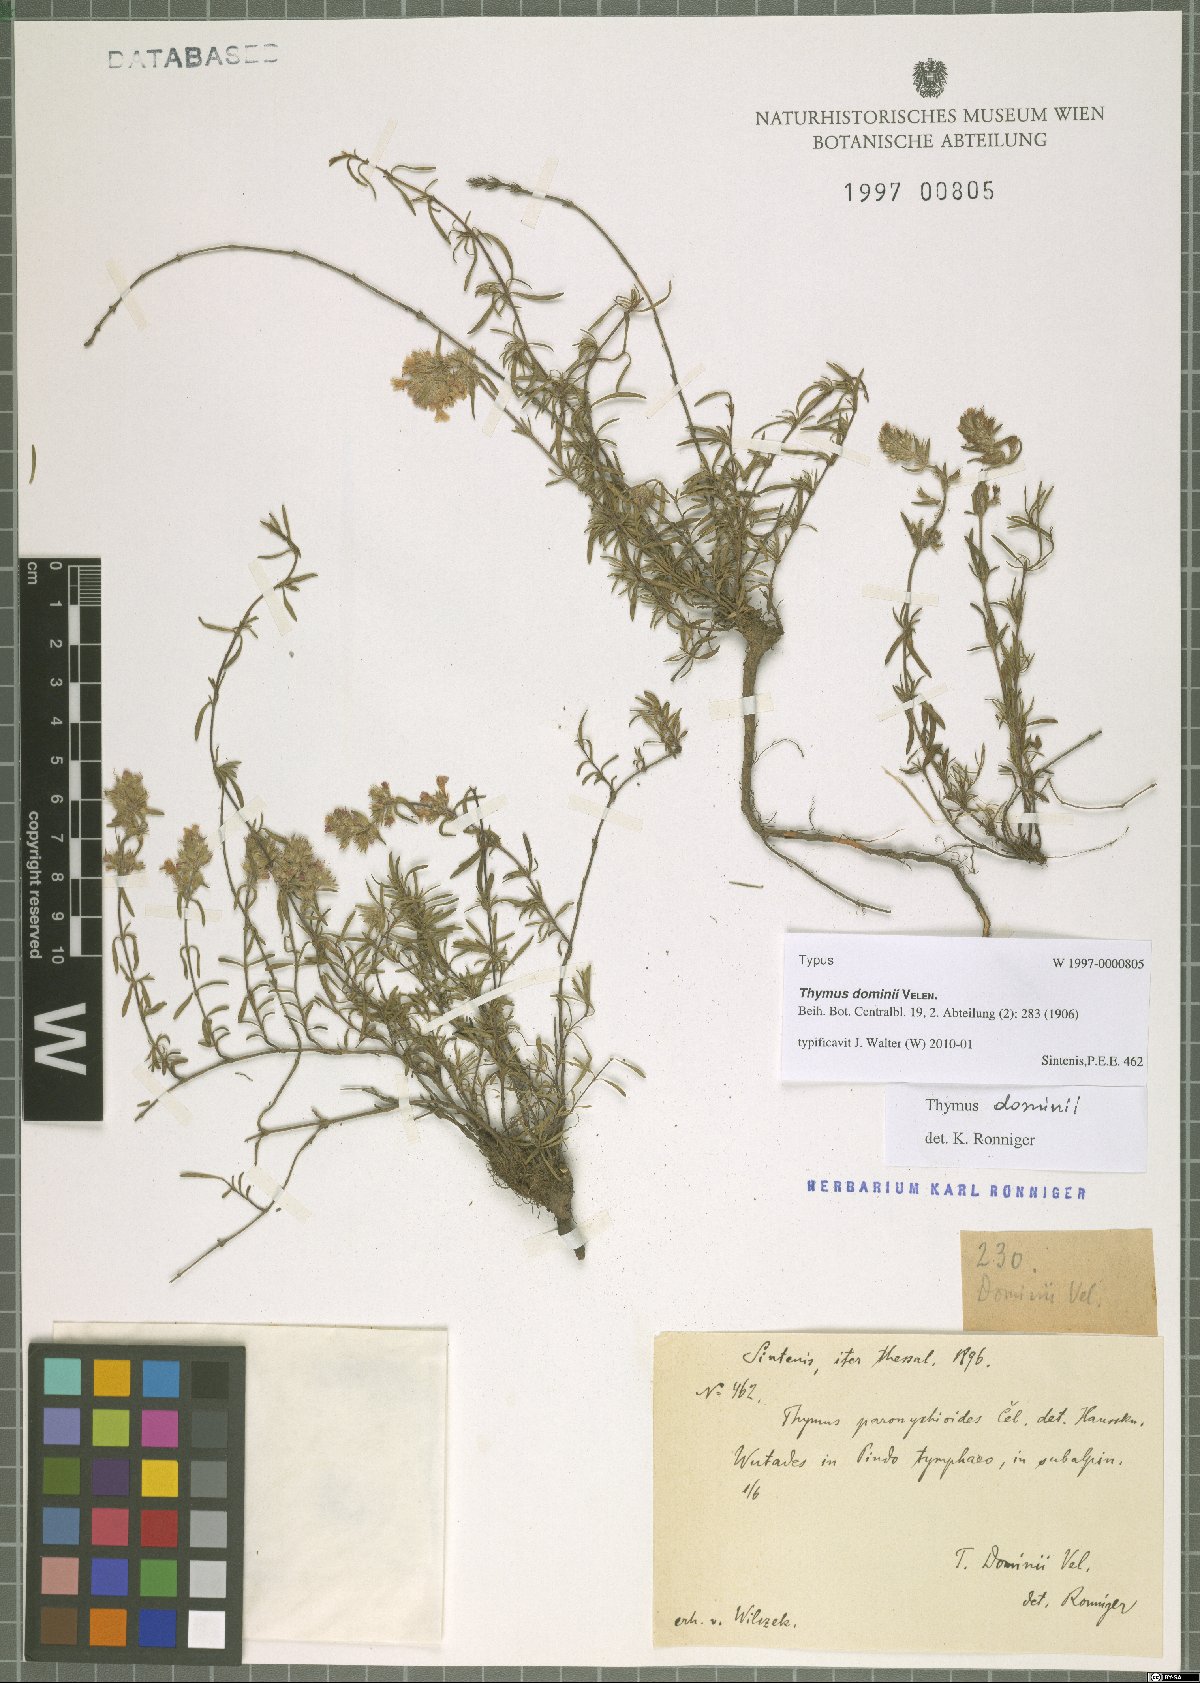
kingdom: Plantae
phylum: Tracheophyta
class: Magnoliopsida
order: Lamiales
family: Lamiaceae
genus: Thymus
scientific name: Thymus sibthorpii
